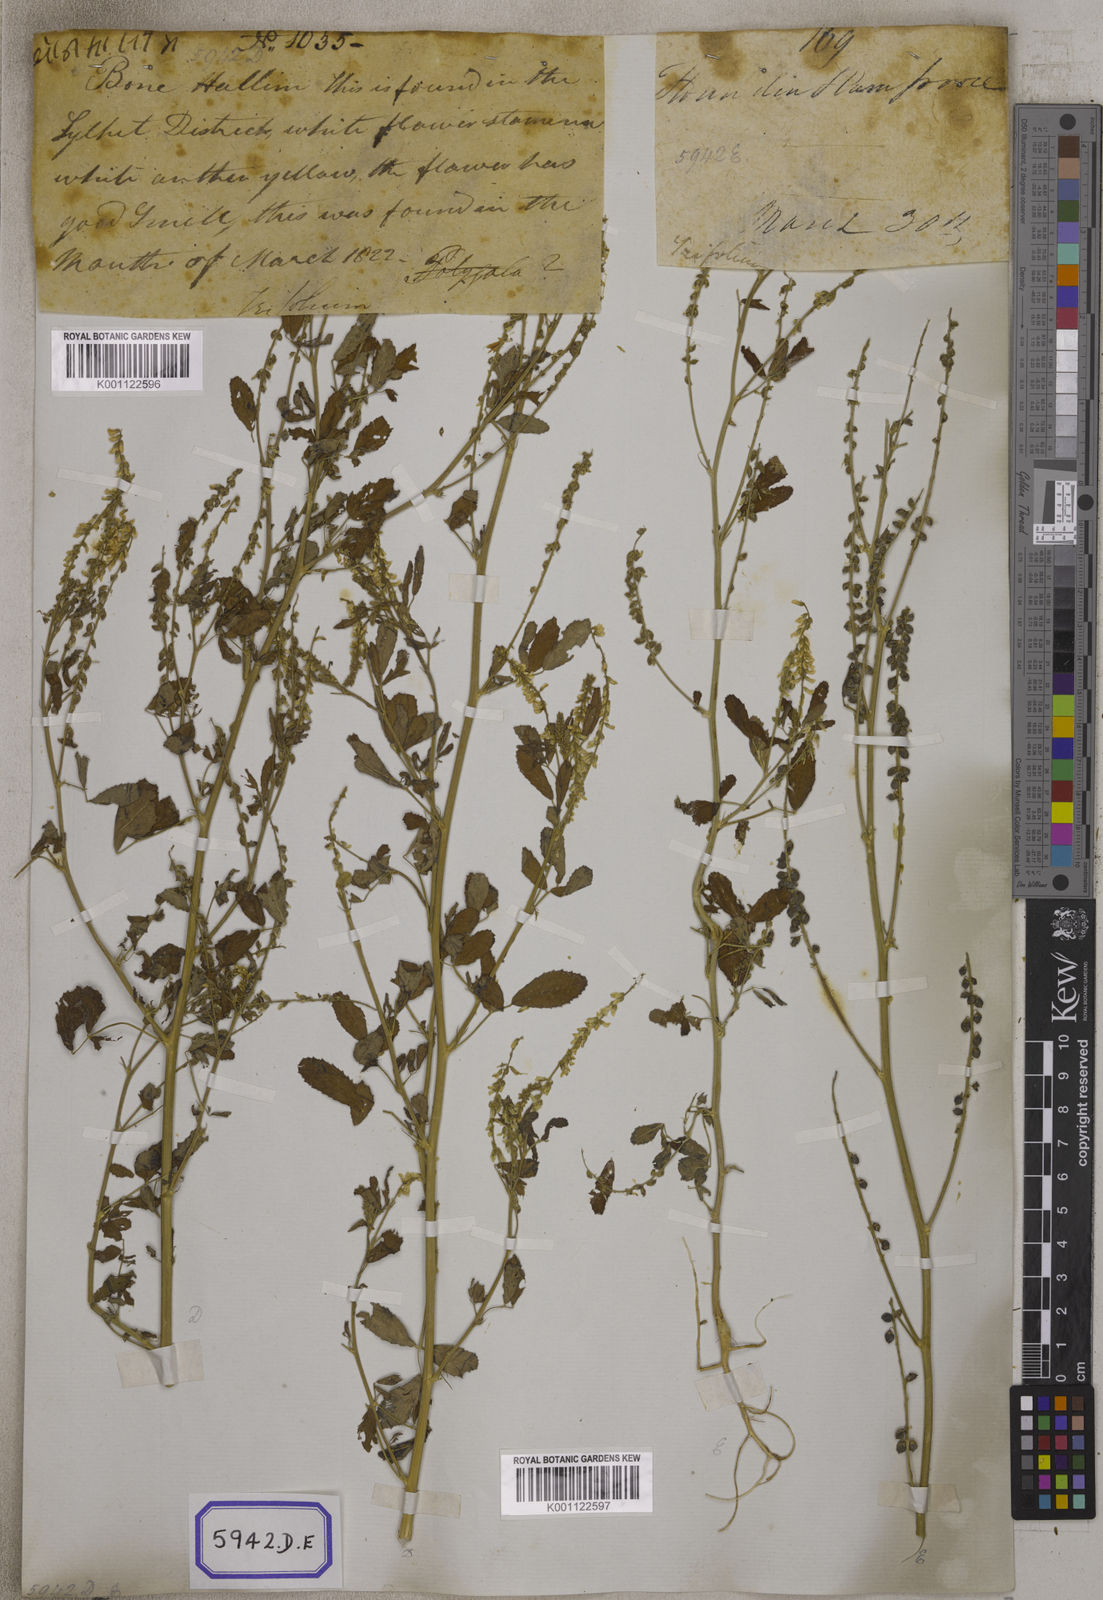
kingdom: Plantae
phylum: Tracheophyta
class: Magnoliopsida
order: Fabales
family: Fabaceae
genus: Melilotus
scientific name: Melilotus altissimus
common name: Tall melilot
